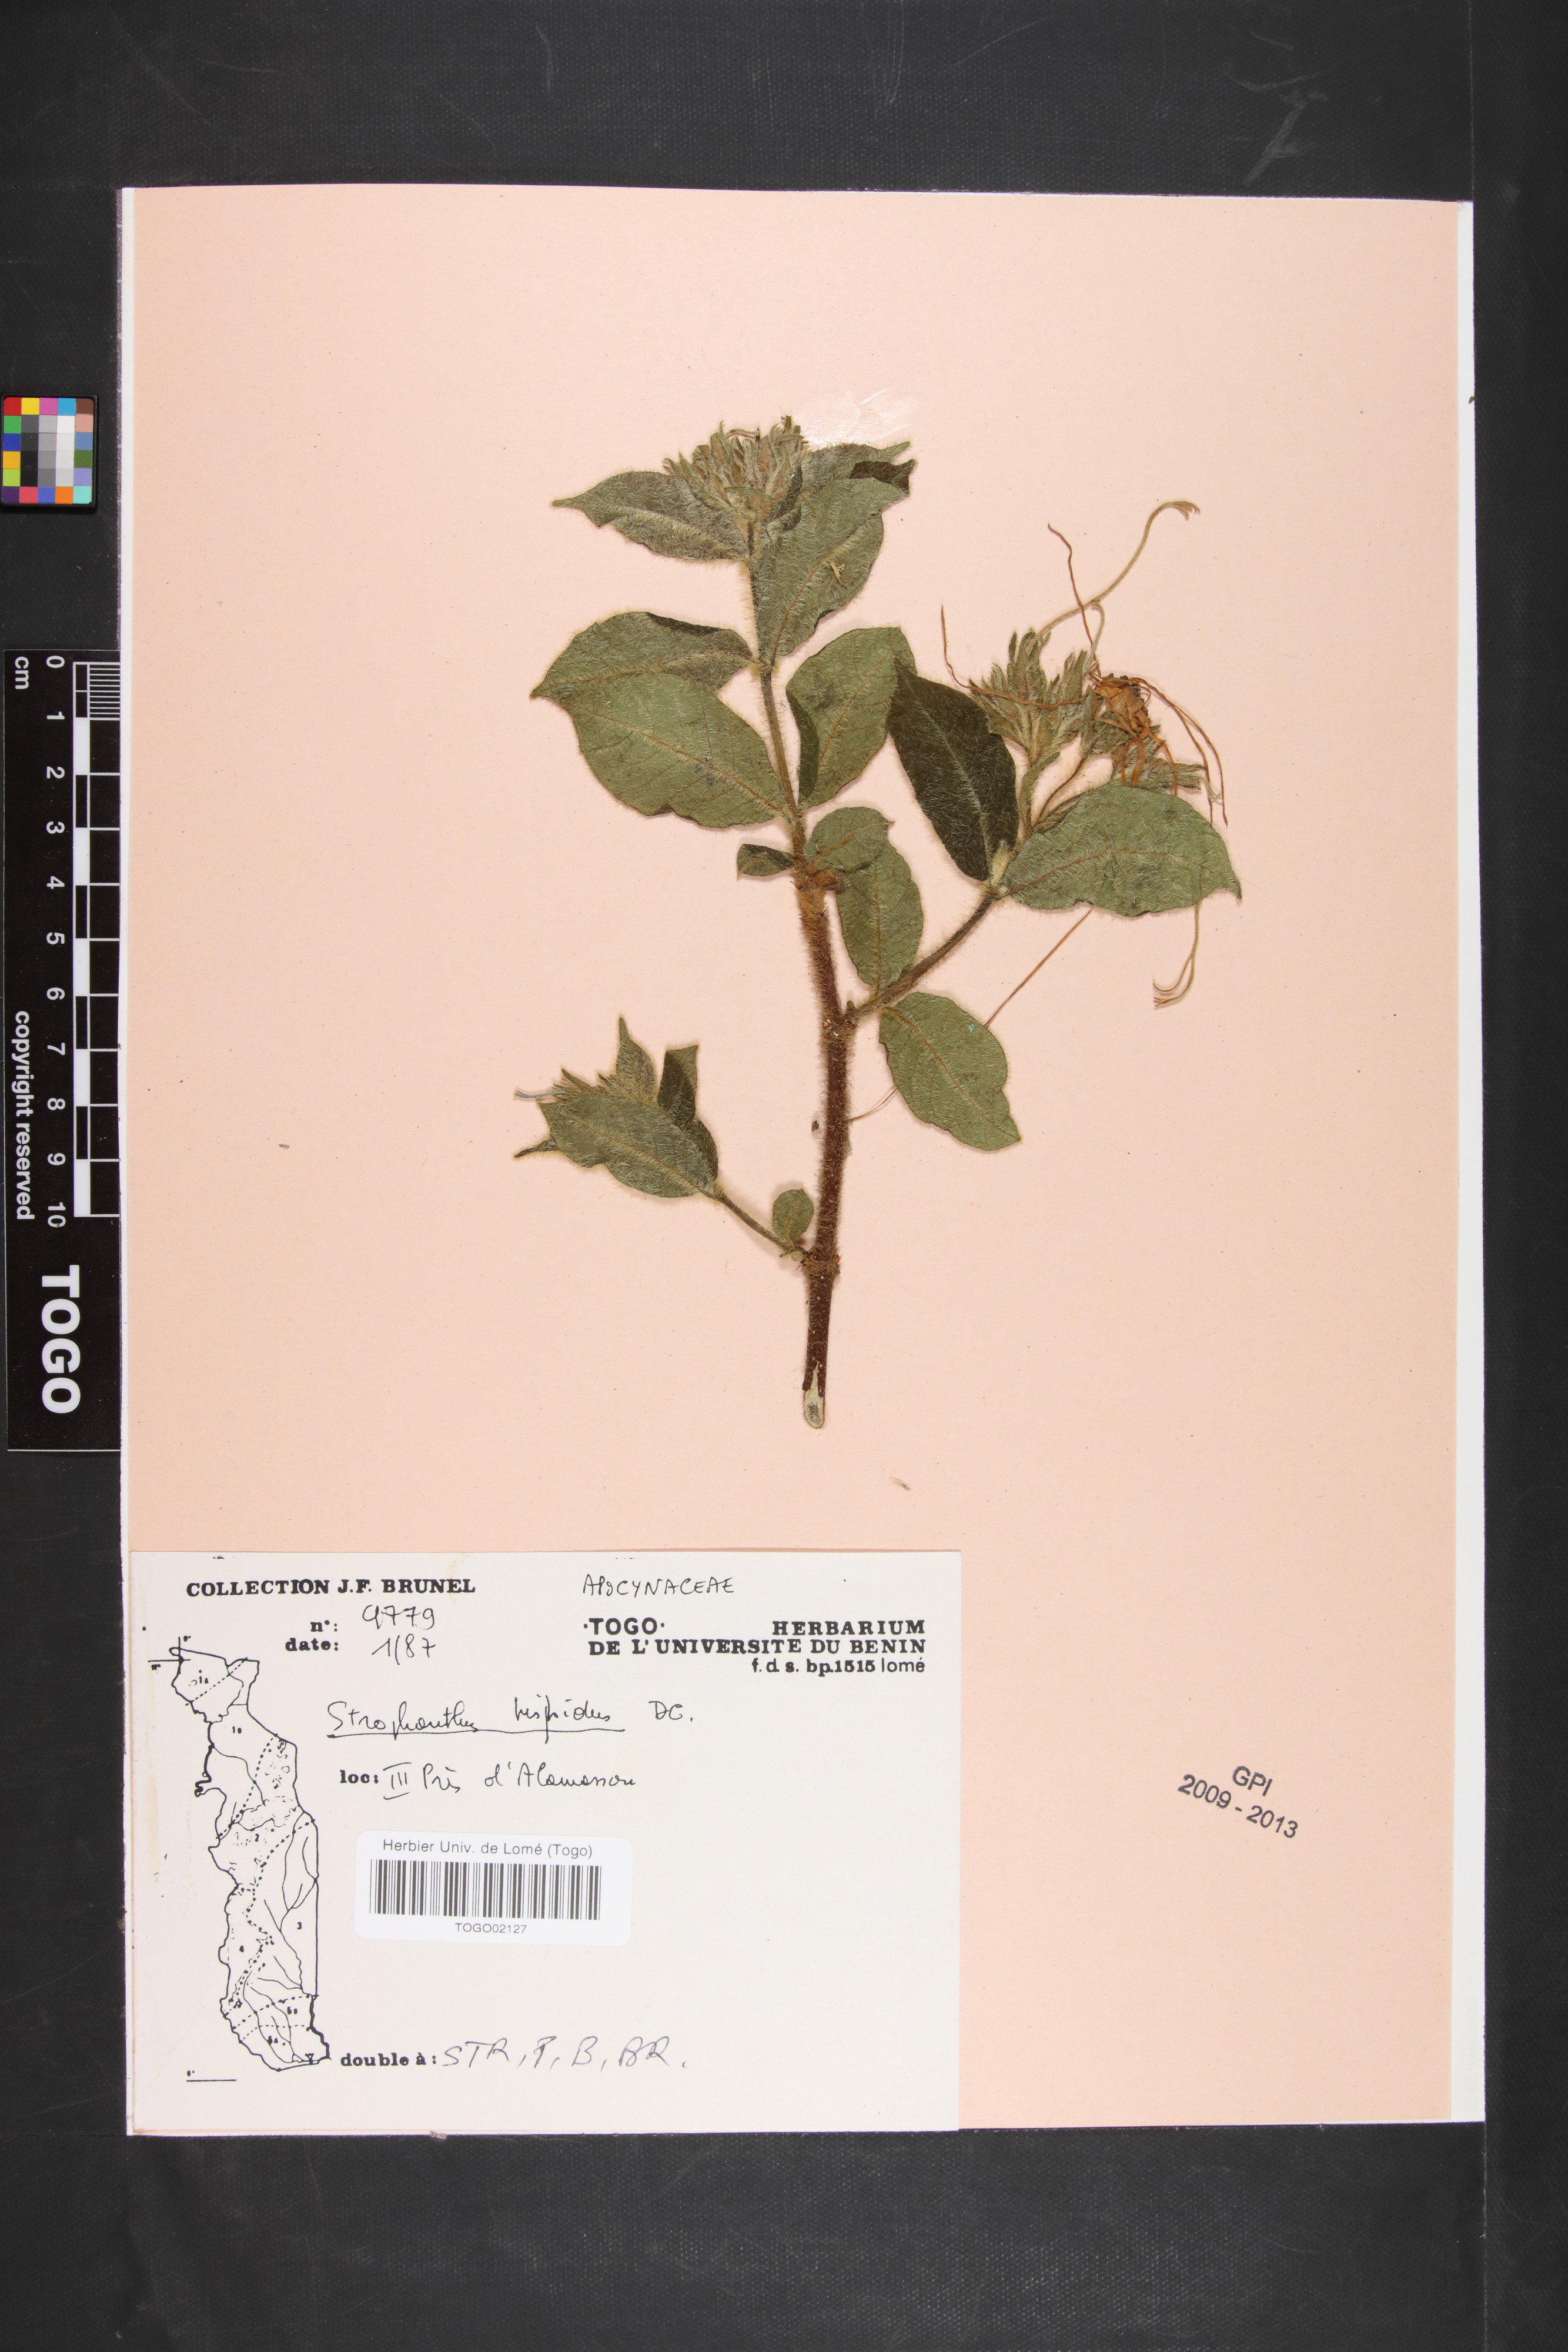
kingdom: Plantae
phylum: Tracheophyta
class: Magnoliopsida
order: Gentianales
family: Apocynaceae
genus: Strophanthus
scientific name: Strophanthus hispidus
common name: Hairy strophanthus
